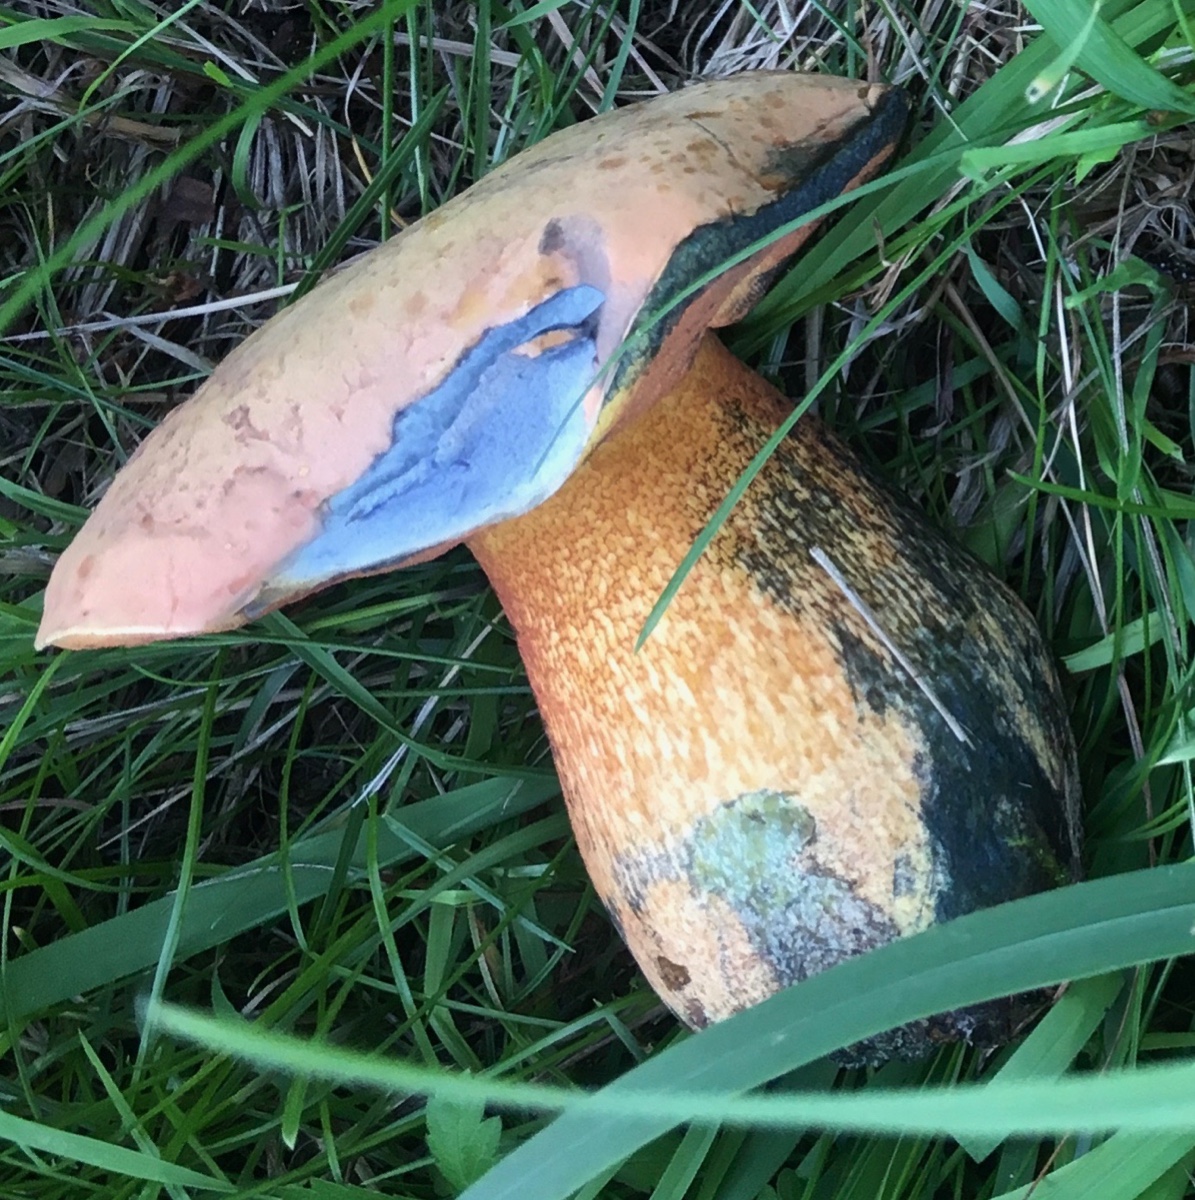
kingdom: Fungi
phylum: Basidiomycota
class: Agaricomycetes
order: Boletales
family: Boletaceae
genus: Suillellus
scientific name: Suillellus luridus
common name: netstokket indigorørhat
